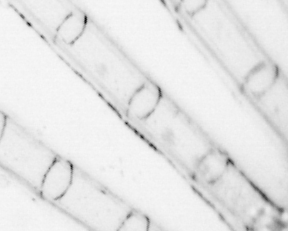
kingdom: Animalia
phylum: Chordata
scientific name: Chordata
